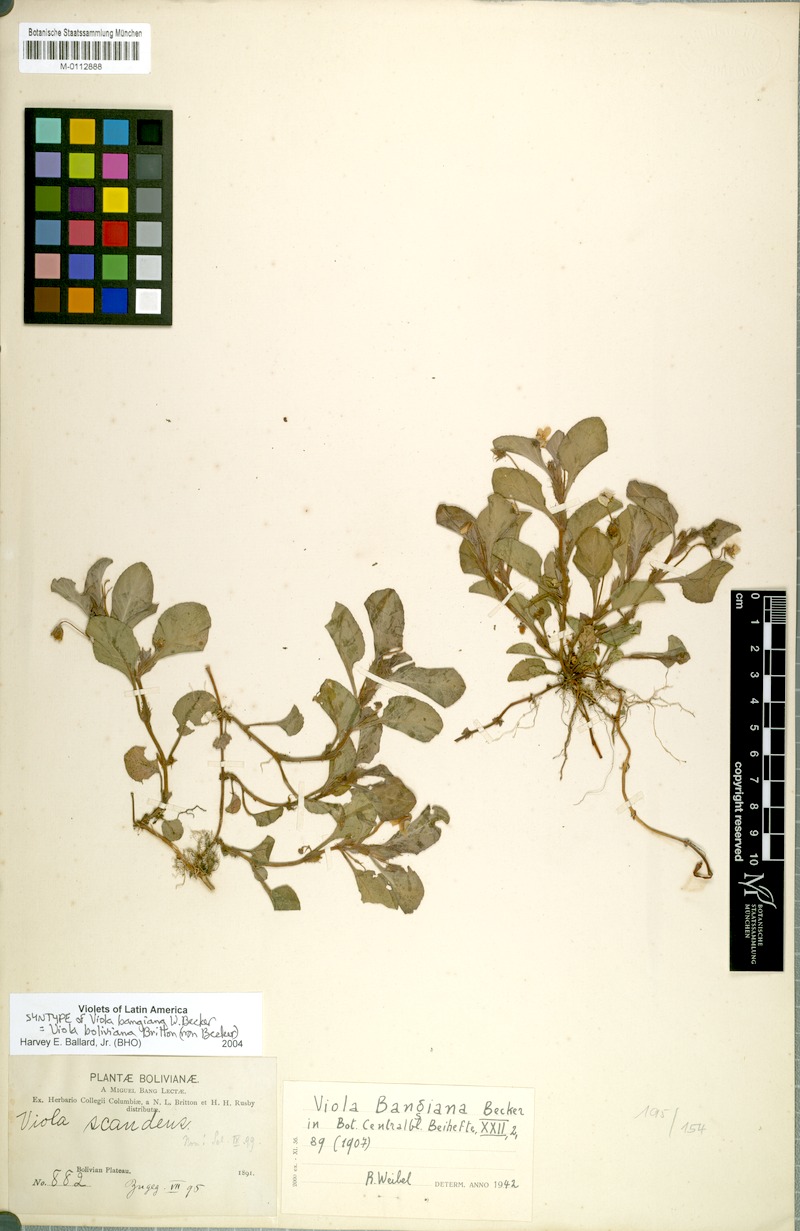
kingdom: Plantae
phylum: Tracheophyta
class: Magnoliopsida
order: Malpighiales
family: Violaceae
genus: Viola
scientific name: Viola boliviana
